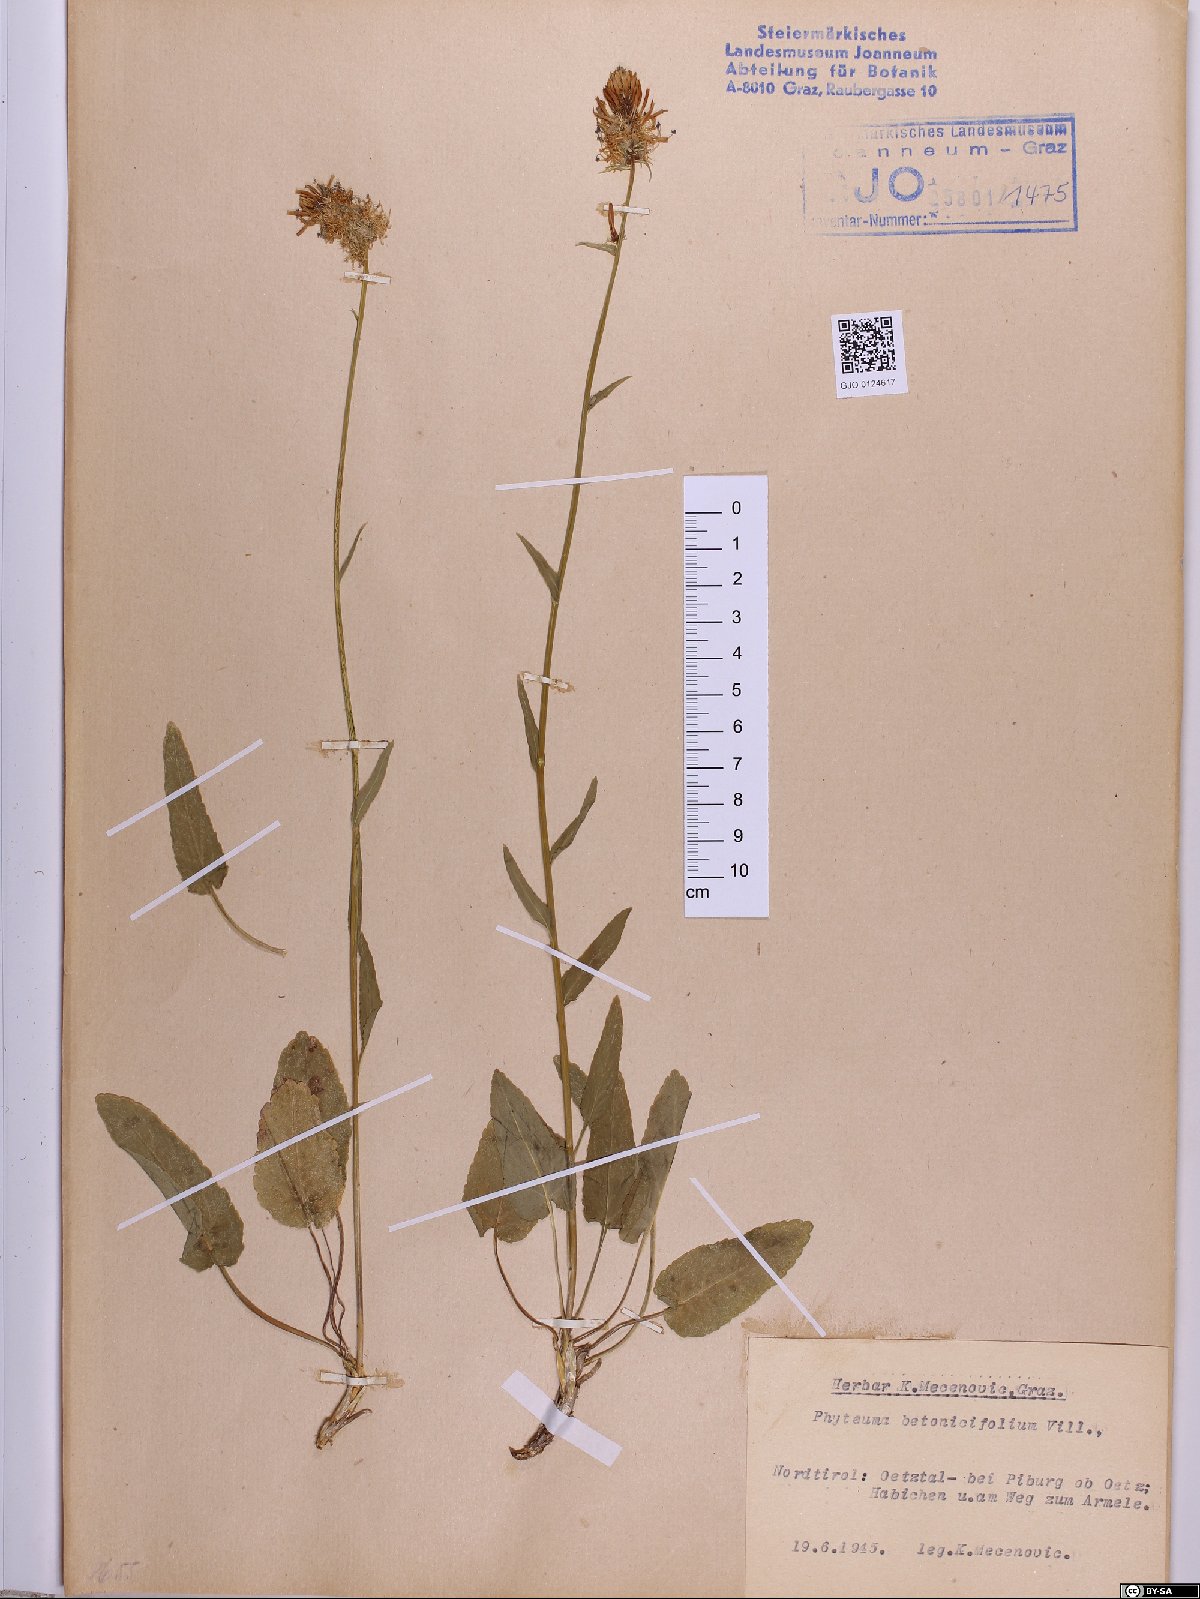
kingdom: Plantae
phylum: Tracheophyta
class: Magnoliopsida
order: Asterales
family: Campanulaceae
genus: Phyteuma
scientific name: Phyteuma betonicifolium
